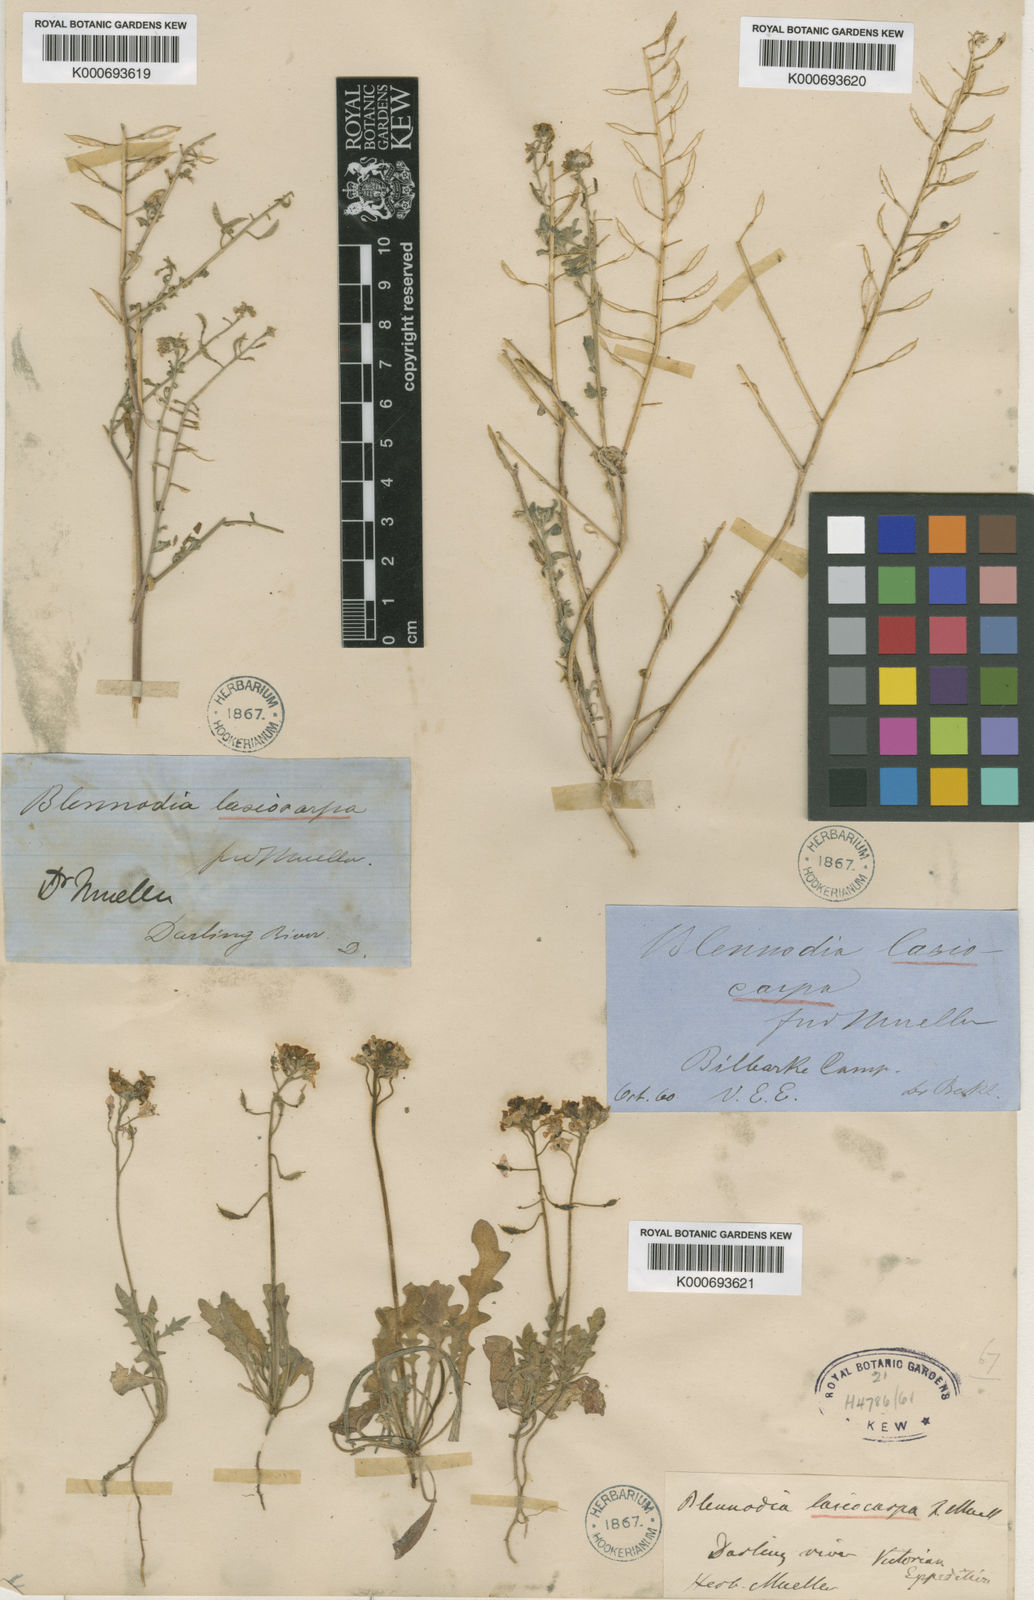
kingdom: Plantae
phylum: Tracheophyta
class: Magnoliopsida
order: Brassicales
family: Brassicaceae
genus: Blennodia
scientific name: Blennodia
